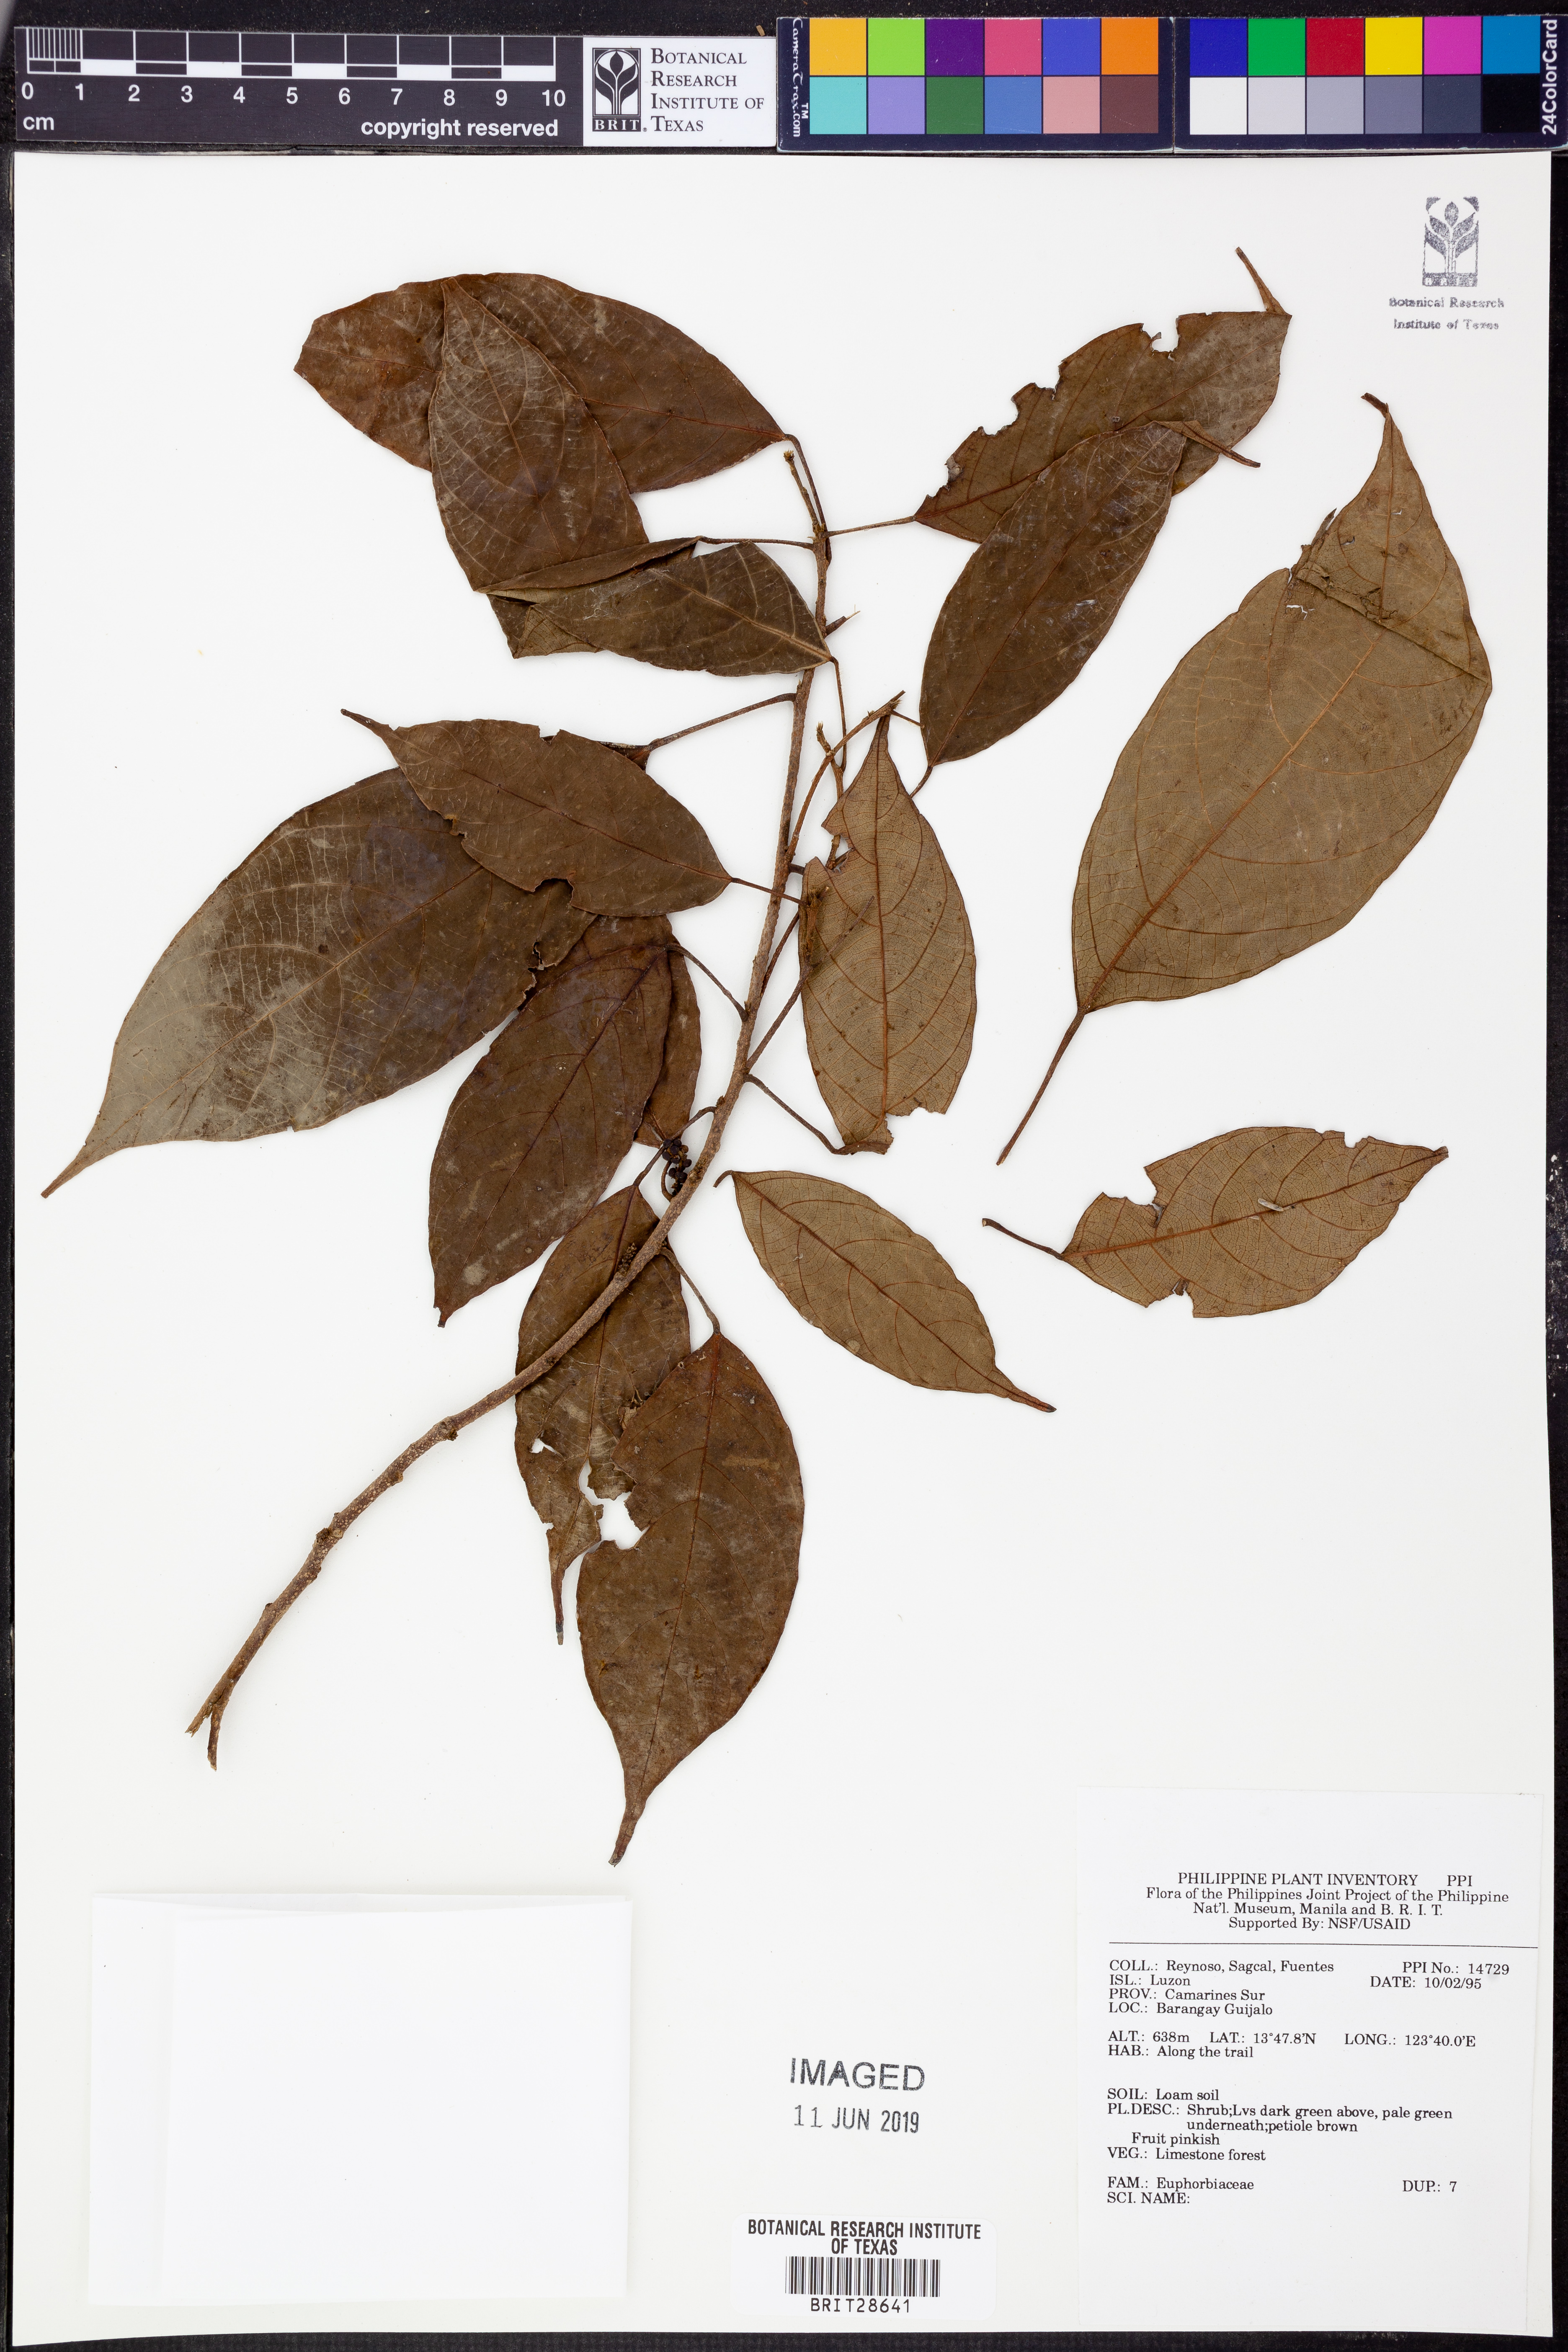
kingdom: Plantae
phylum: Tracheophyta
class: Magnoliopsida
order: Malpighiales
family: Euphorbiaceae
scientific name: Euphorbiaceae
